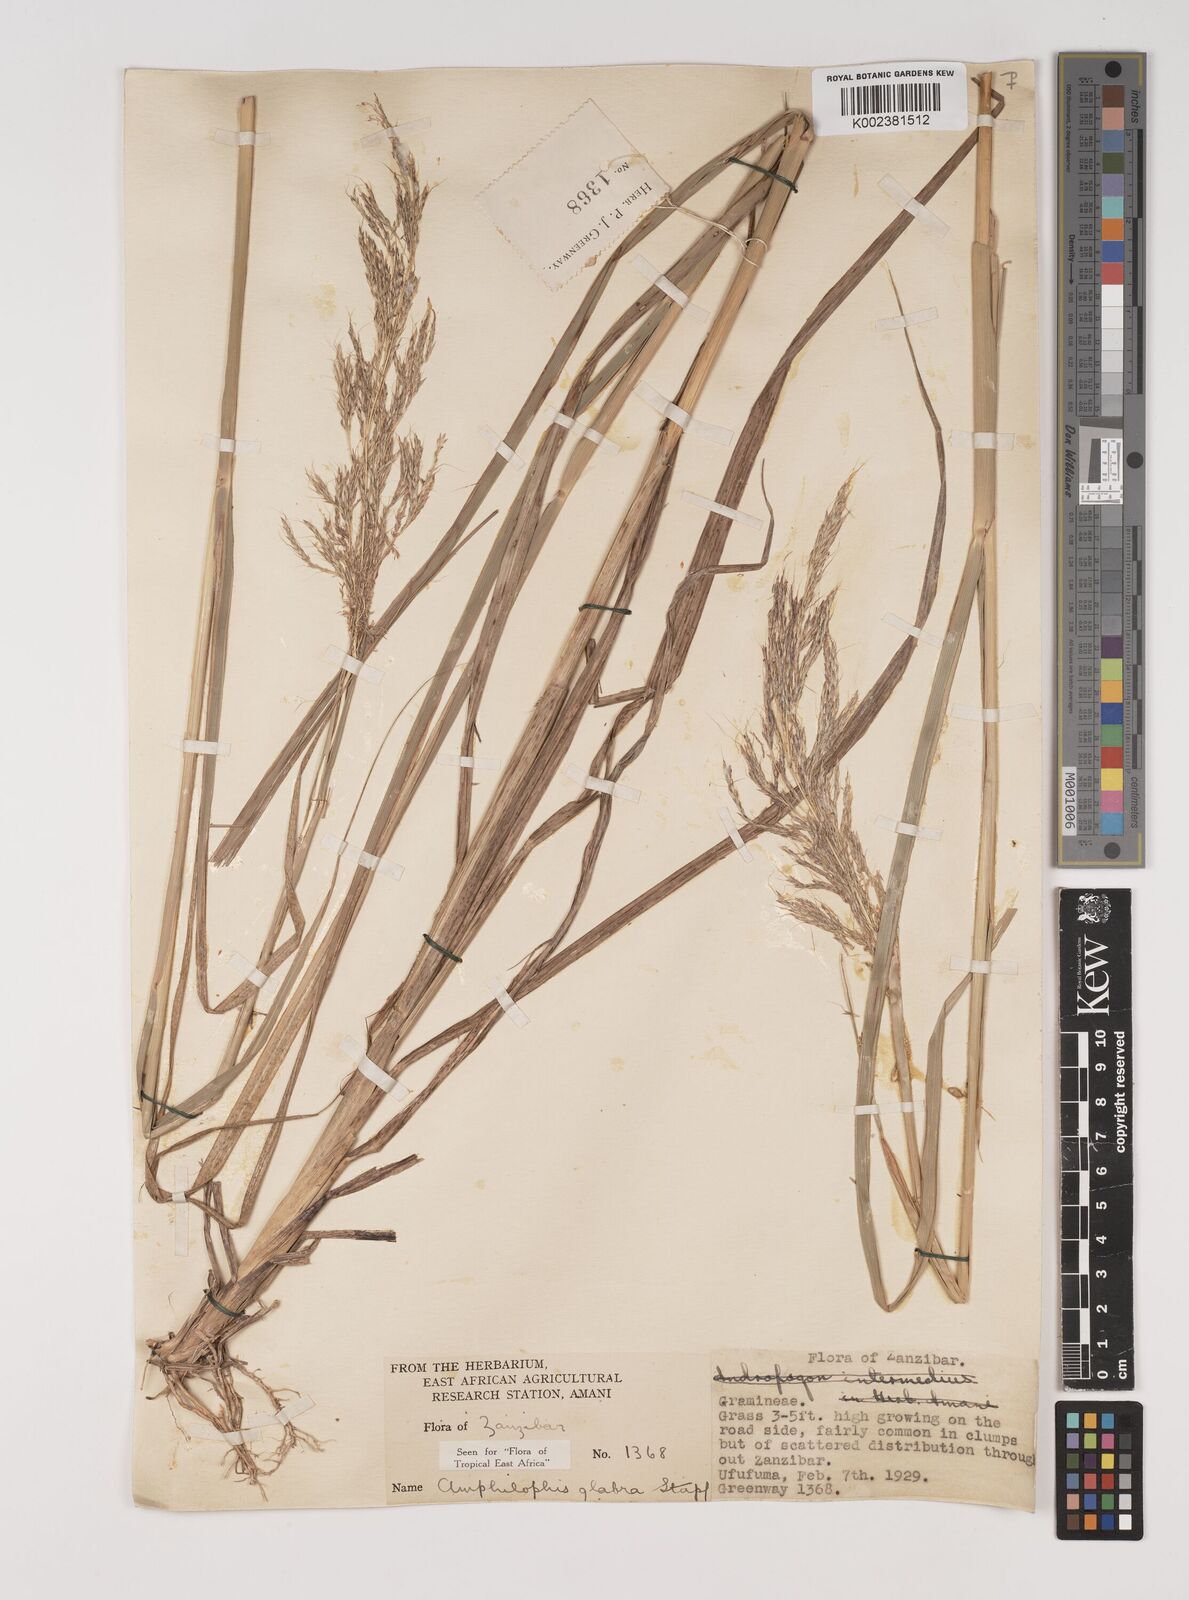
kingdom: Plantae
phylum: Tracheophyta
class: Liliopsida
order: Poales
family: Poaceae
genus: Bothriochloa
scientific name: Bothriochloa
